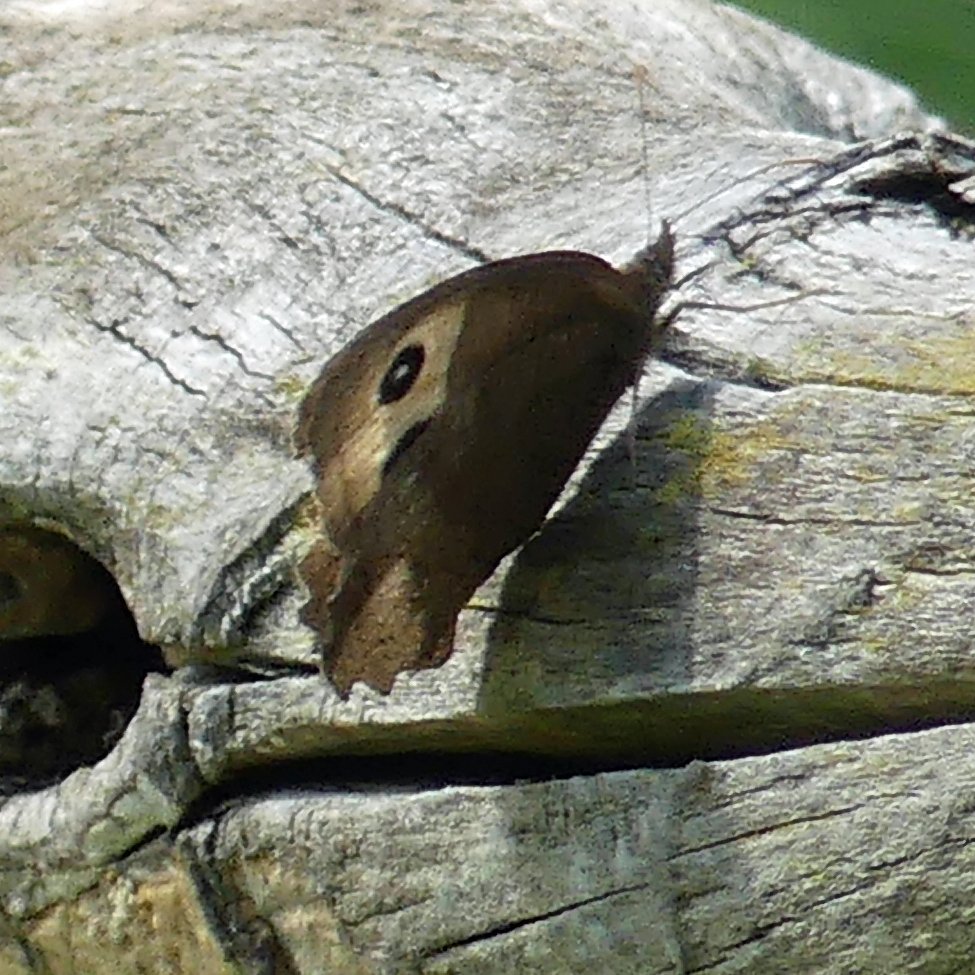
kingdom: Animalia
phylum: Arthropoda
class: Insecta
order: Lepidoptera
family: Nymphalidae
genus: Cercyonis
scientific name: Cercyonis pegala
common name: Common Wood-Nymph
